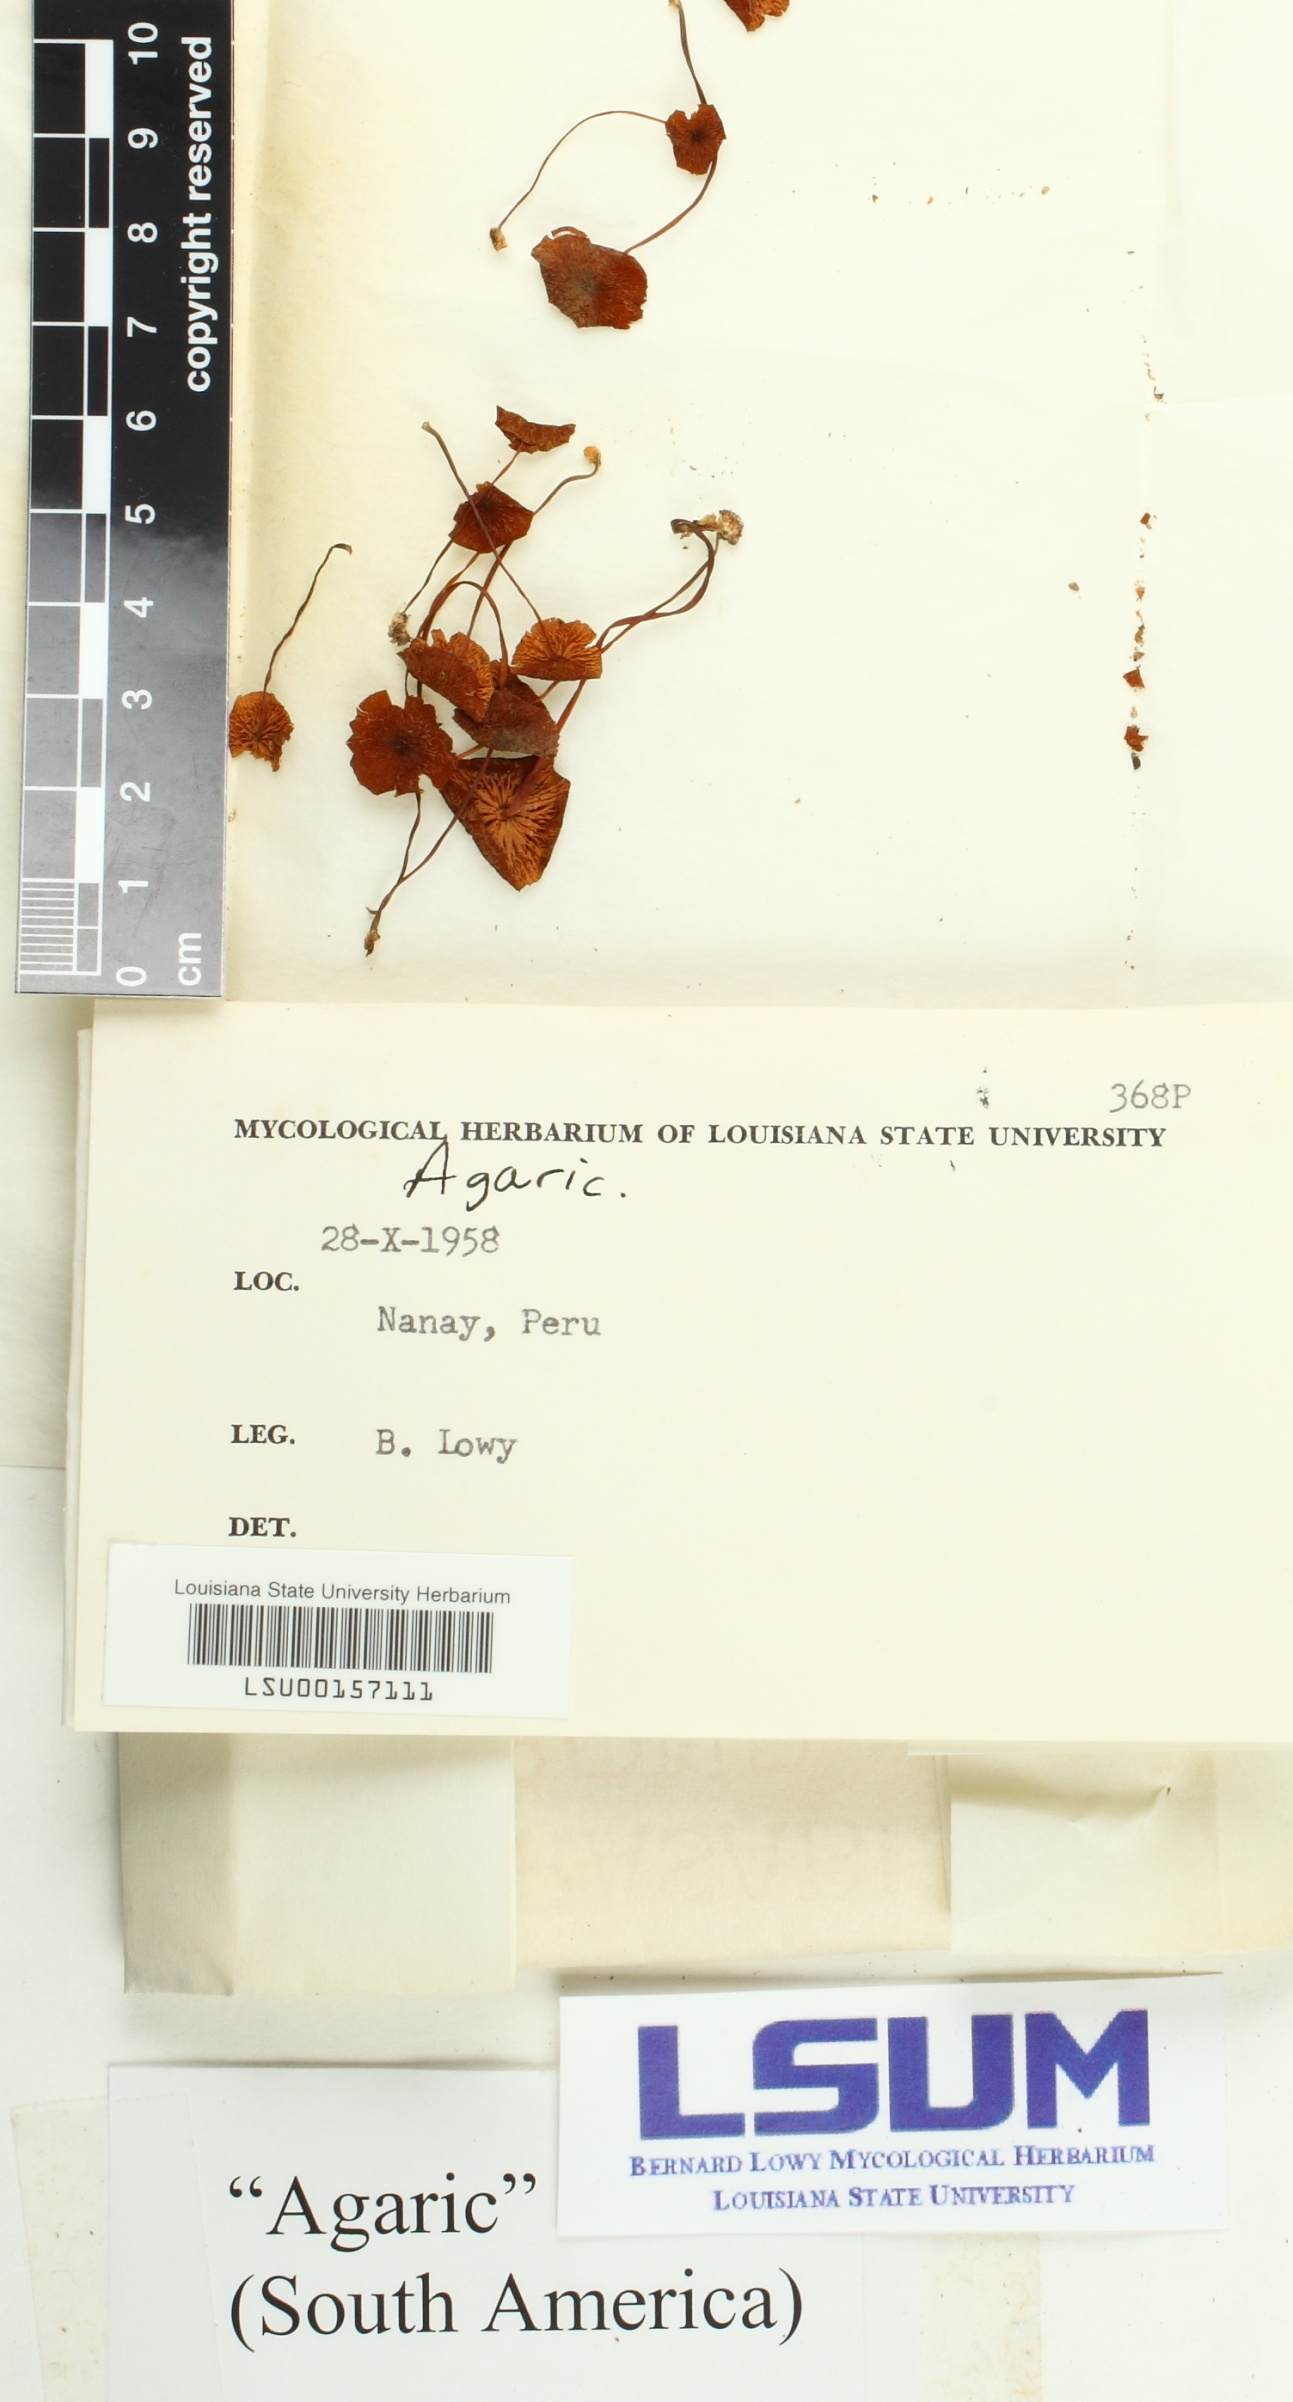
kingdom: Fungi
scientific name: Fungi
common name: Fungi
